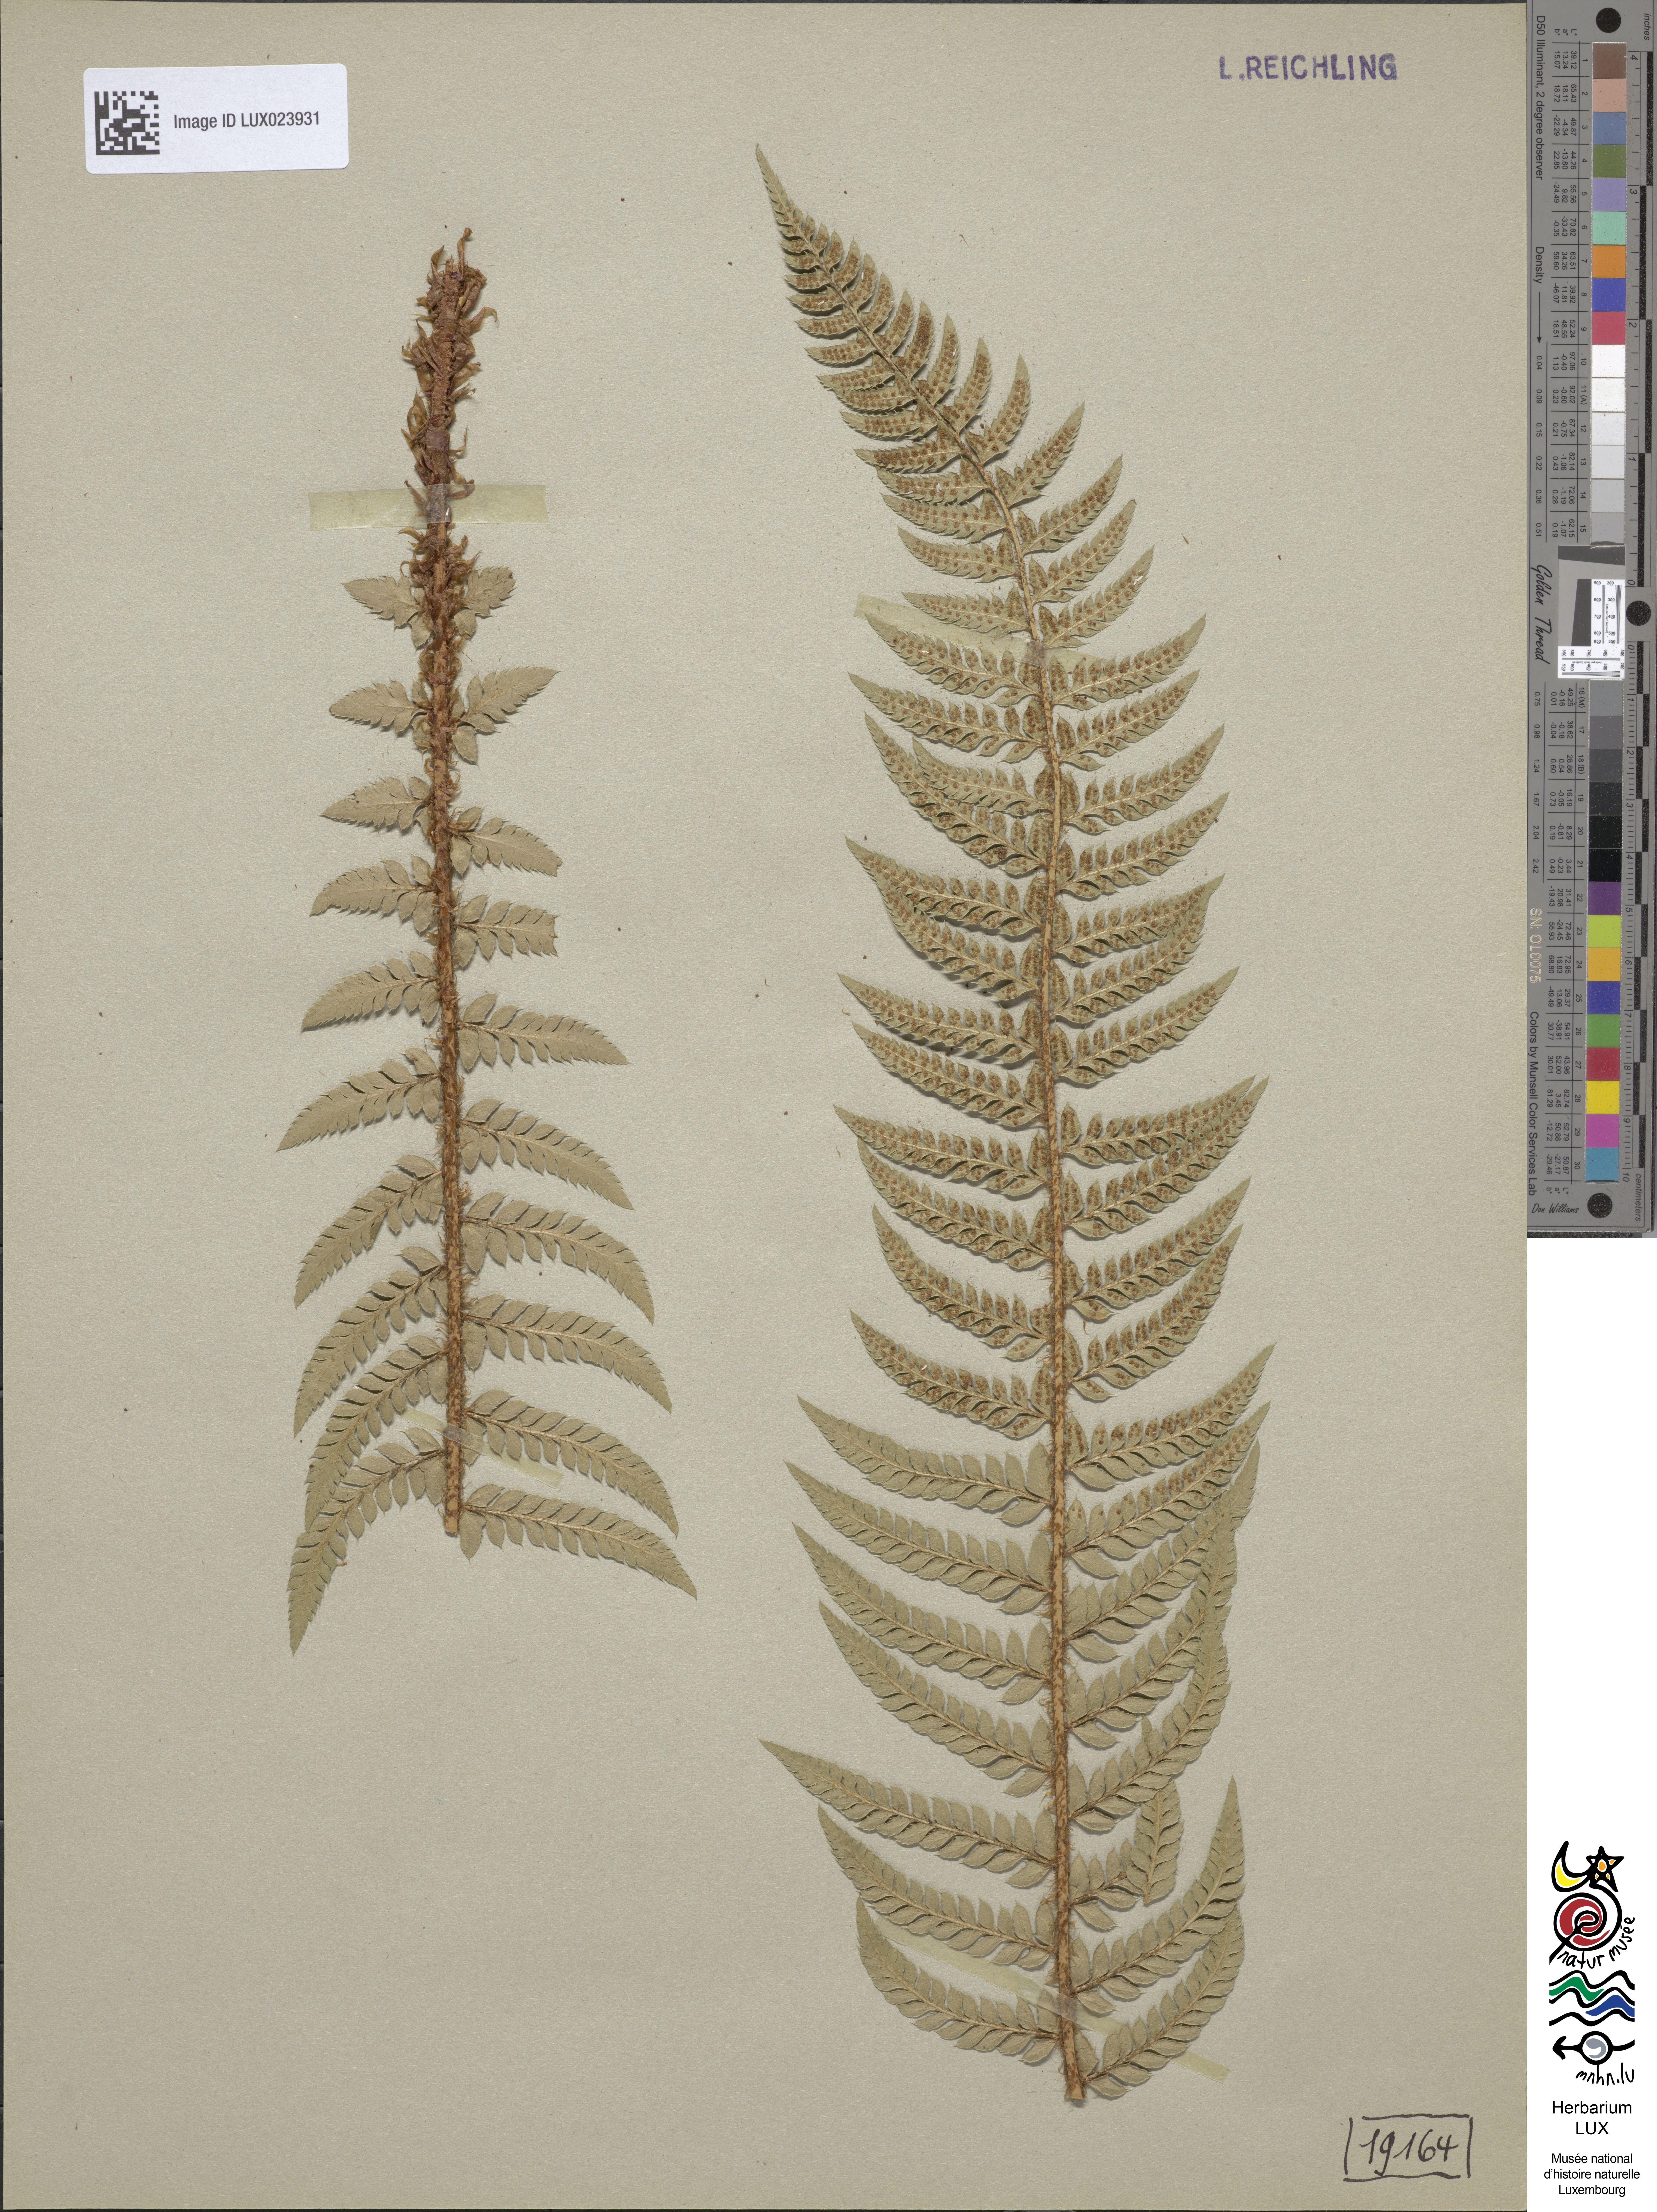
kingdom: Plantae
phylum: Tracheophyta
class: Polypodiopsida
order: Polypodiales
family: Dryopteridaceae
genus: Polystichum
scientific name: Polystichum aculeatum
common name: Hard shield-fern
